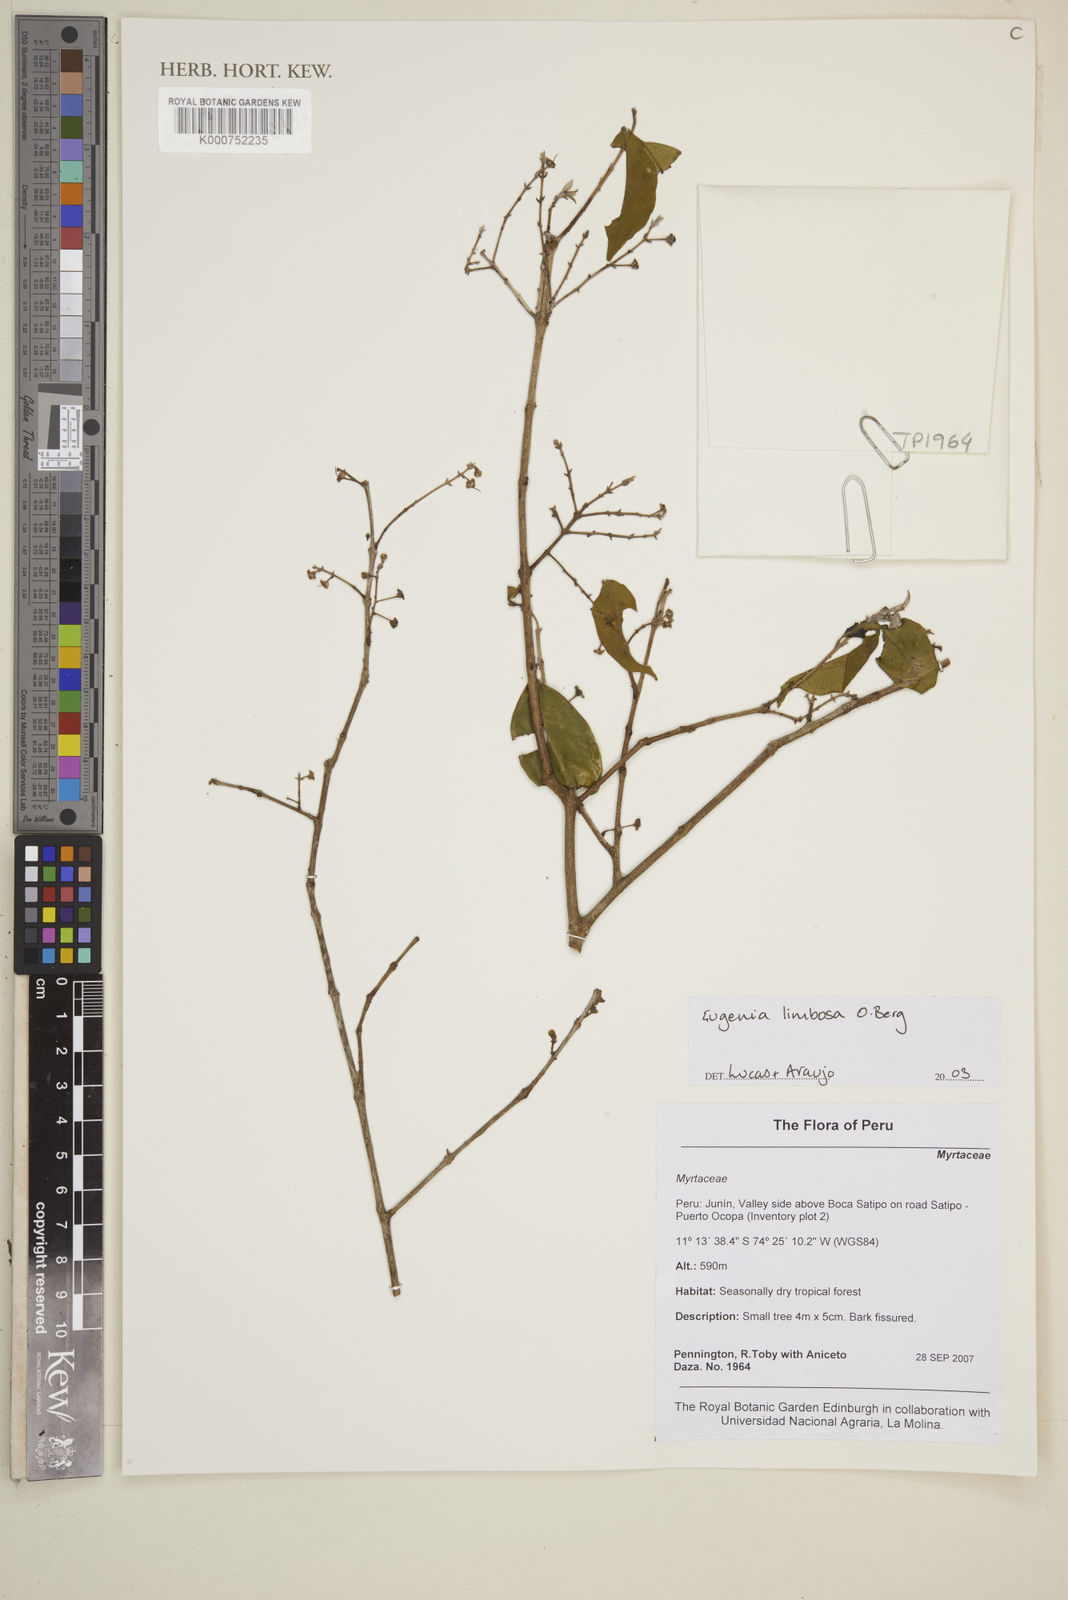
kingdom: Plantae
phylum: Tracheophyta
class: Magnoliopsida
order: Myrtales
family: Myrtaceae
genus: Eugenia
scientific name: Eugenia limbosa
